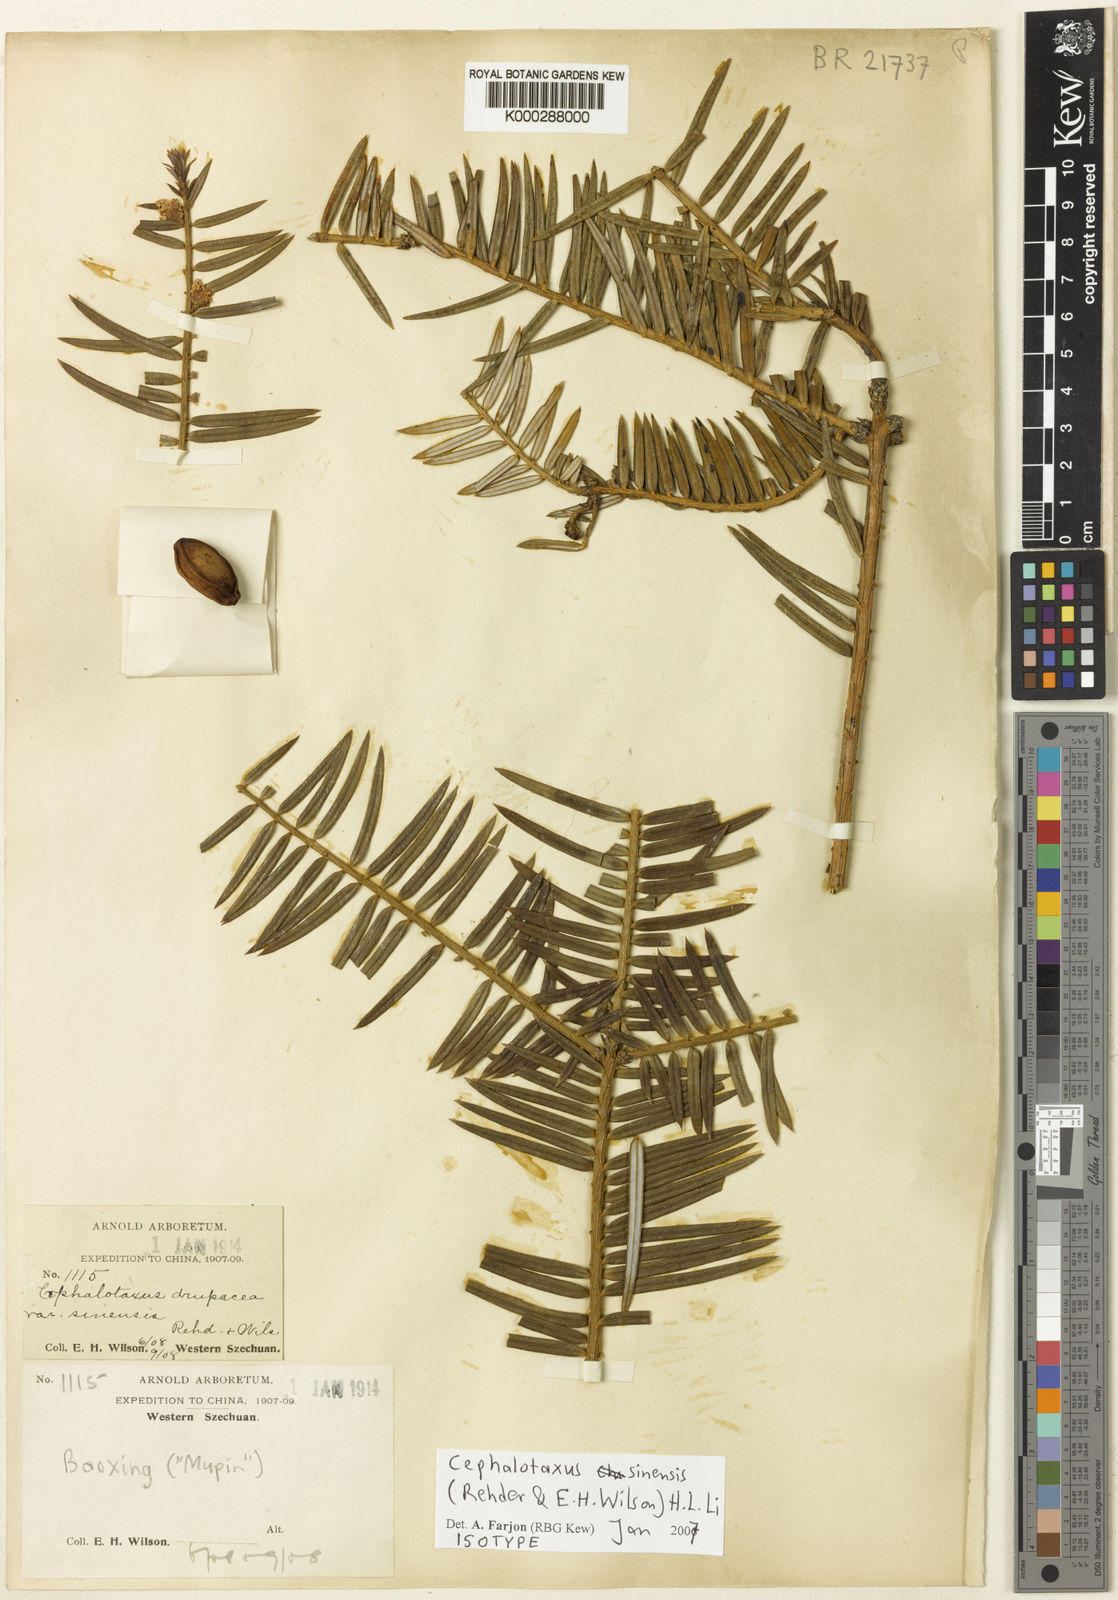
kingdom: Plantae
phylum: Tracheophyta
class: Pinopsida
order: Pinales
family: Cephalotaxaceae
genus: Cephalotaxus
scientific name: Cephalotaxus sinensis
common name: Chinese plum yew
